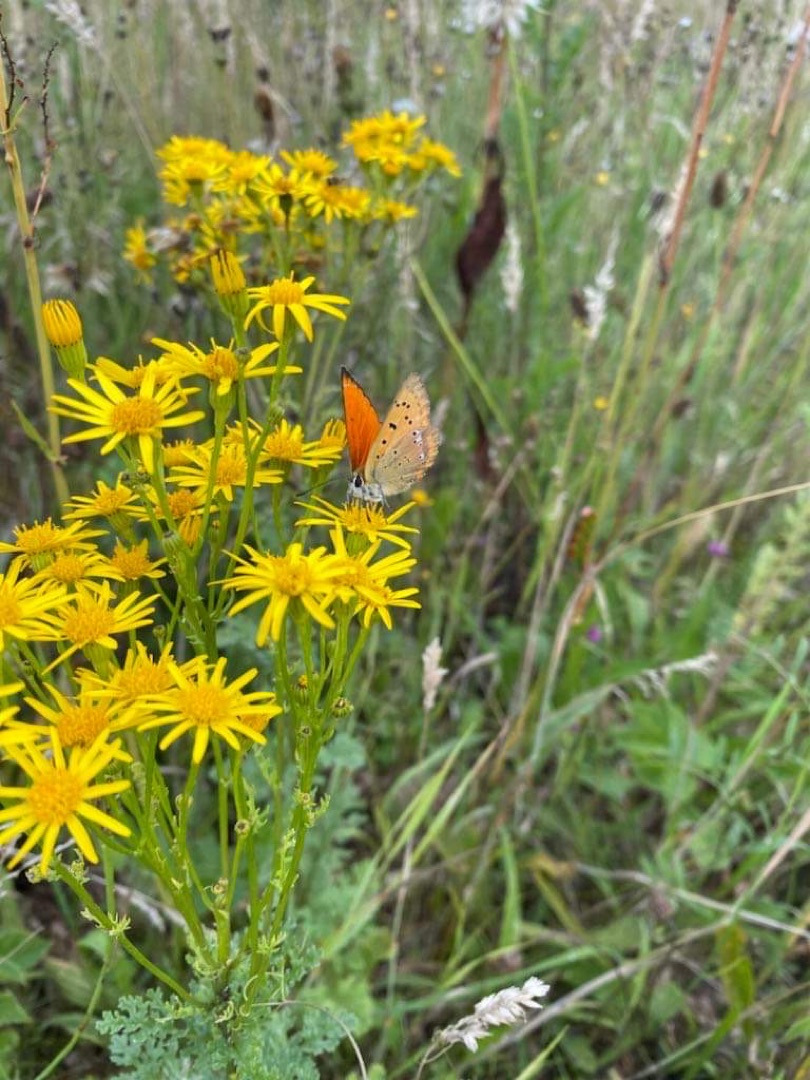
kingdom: Animalia
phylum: Arthropoda
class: Insecta
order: Lepidoptera
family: Lycaenidae
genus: Lycaena
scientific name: Lycaena virgaureae
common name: Dukatsommerfugl
